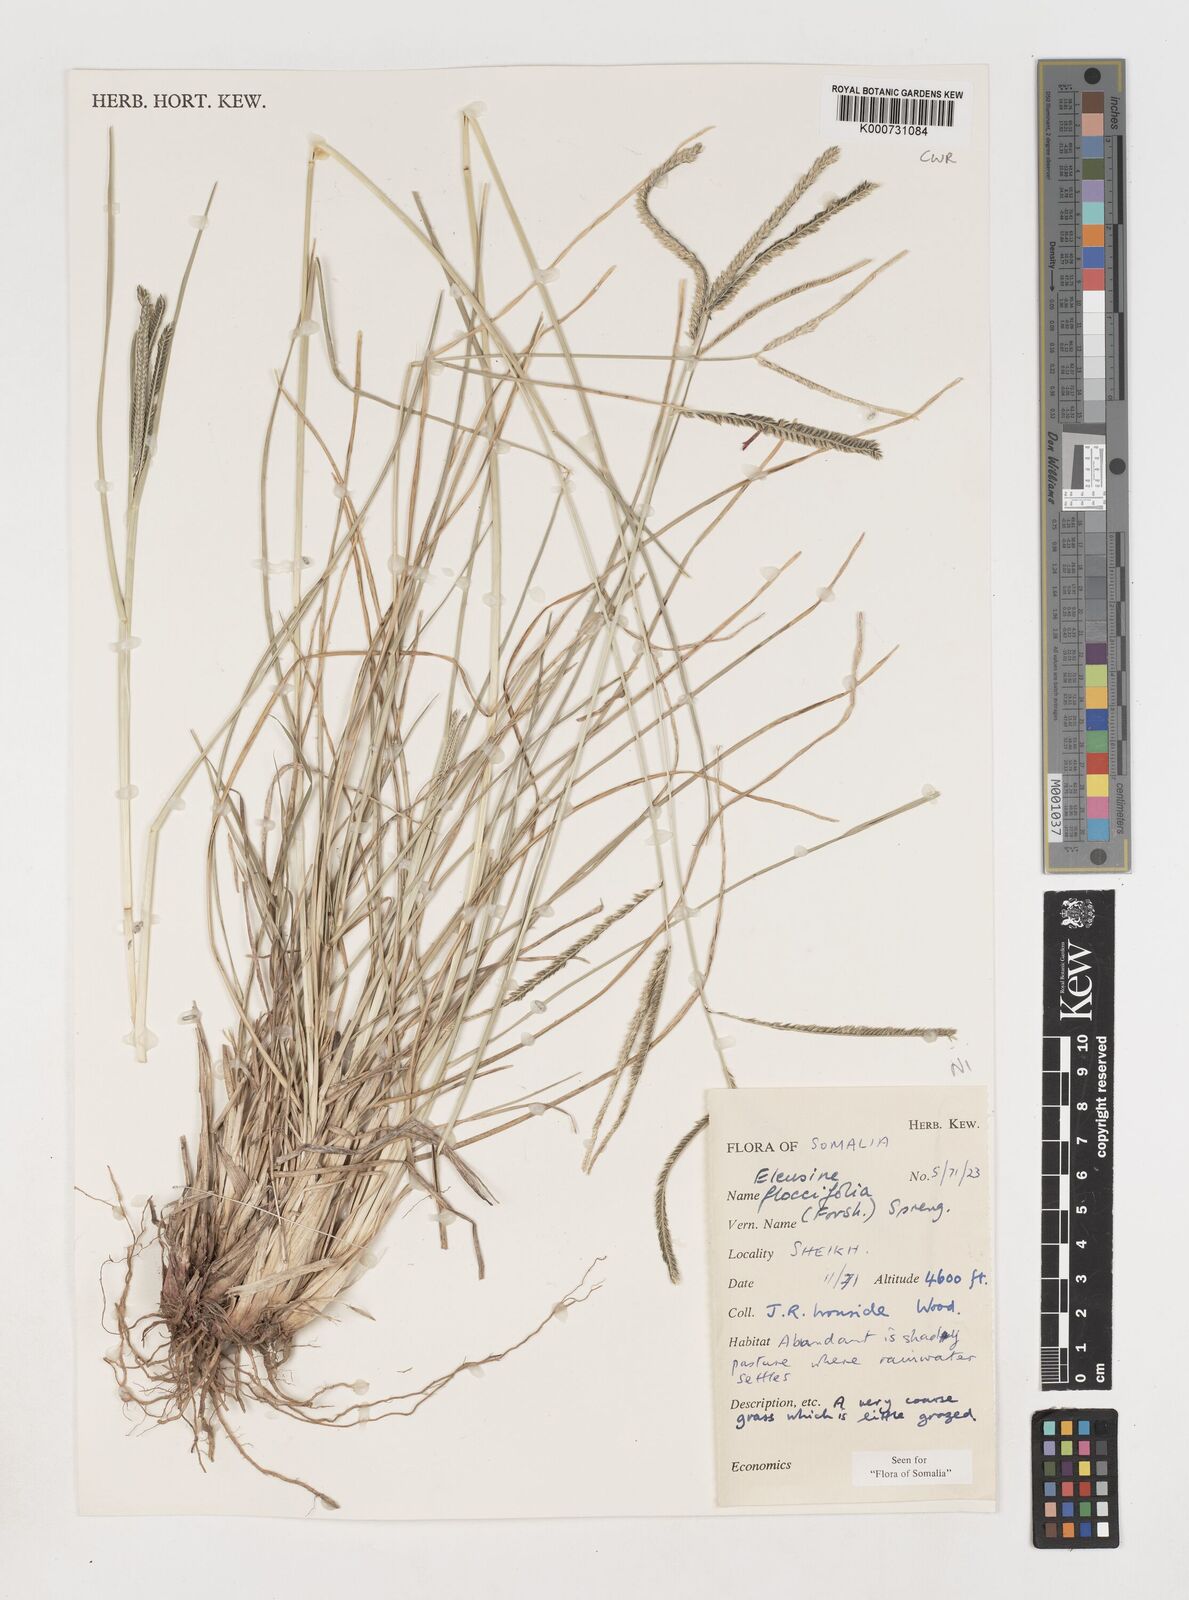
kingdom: Plantae
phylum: Tracheophyta
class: Liliopsida
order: Poales
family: Poaceae
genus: Eleusine
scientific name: Eleusine floccifolia
